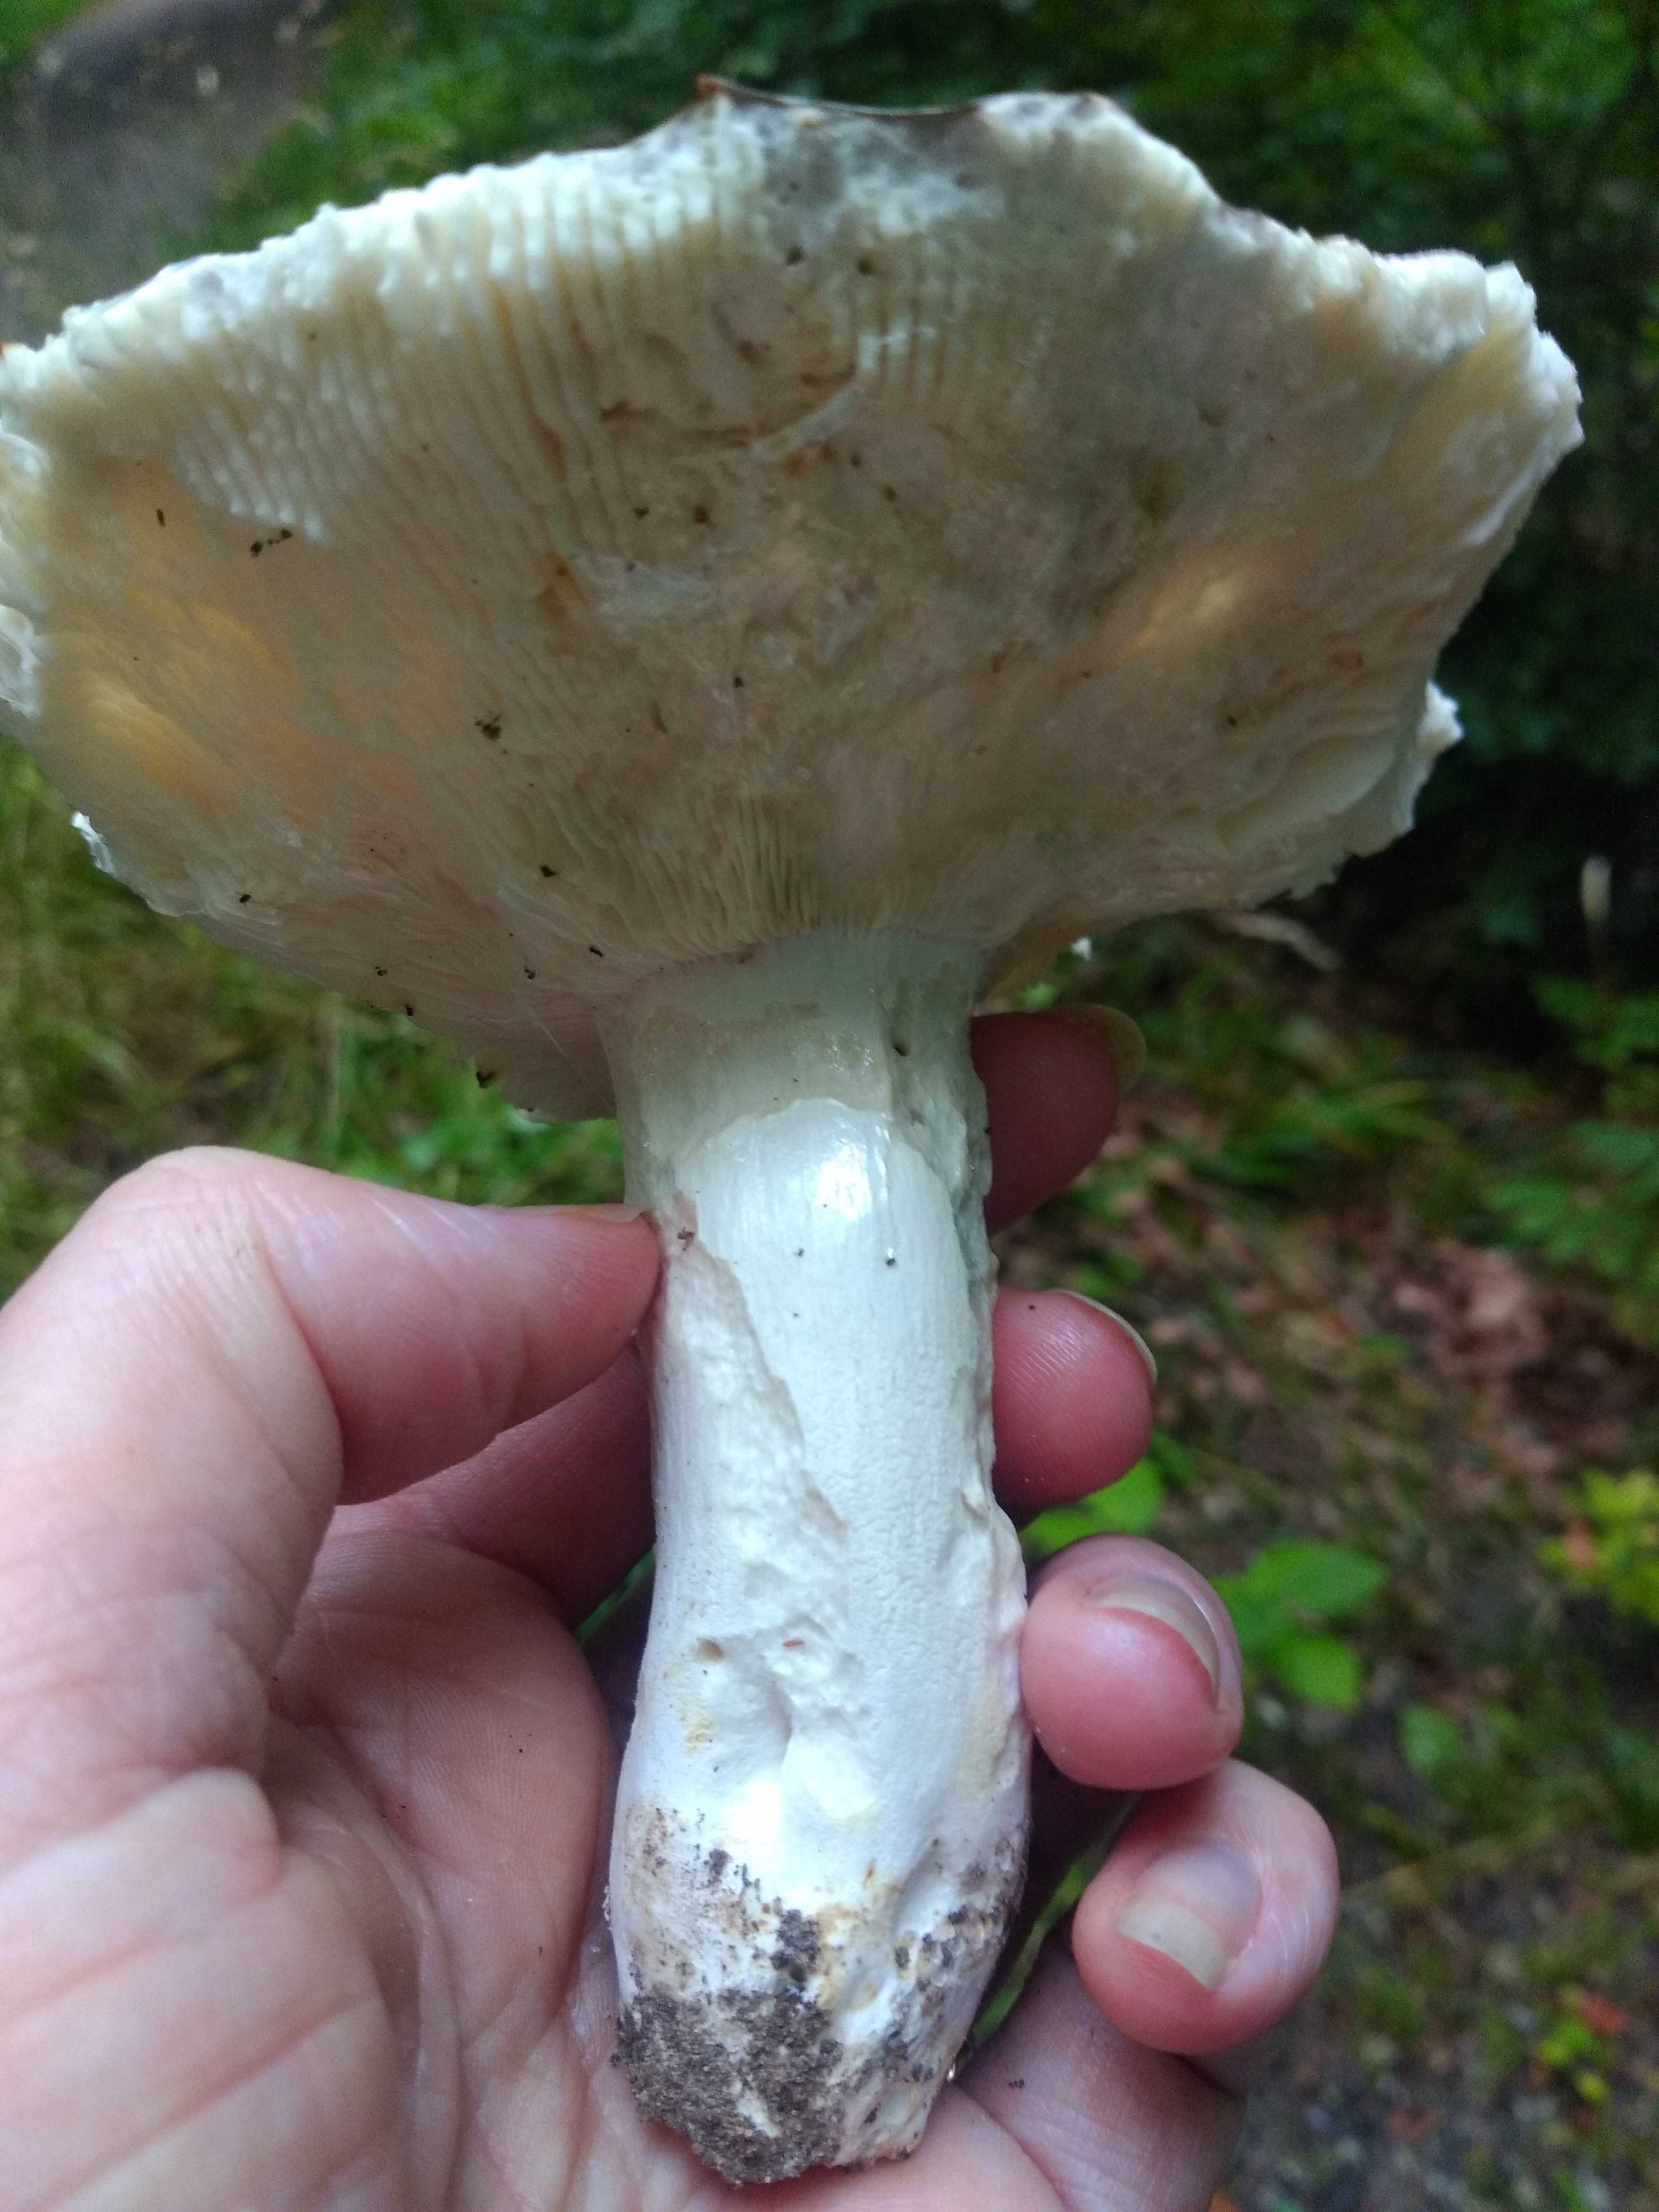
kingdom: Fungi
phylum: Basidiomycota
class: Agaricomycetes
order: Russulales
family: Russulaceae
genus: Russula
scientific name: Russula cyanoxantha
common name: broget skørhat
